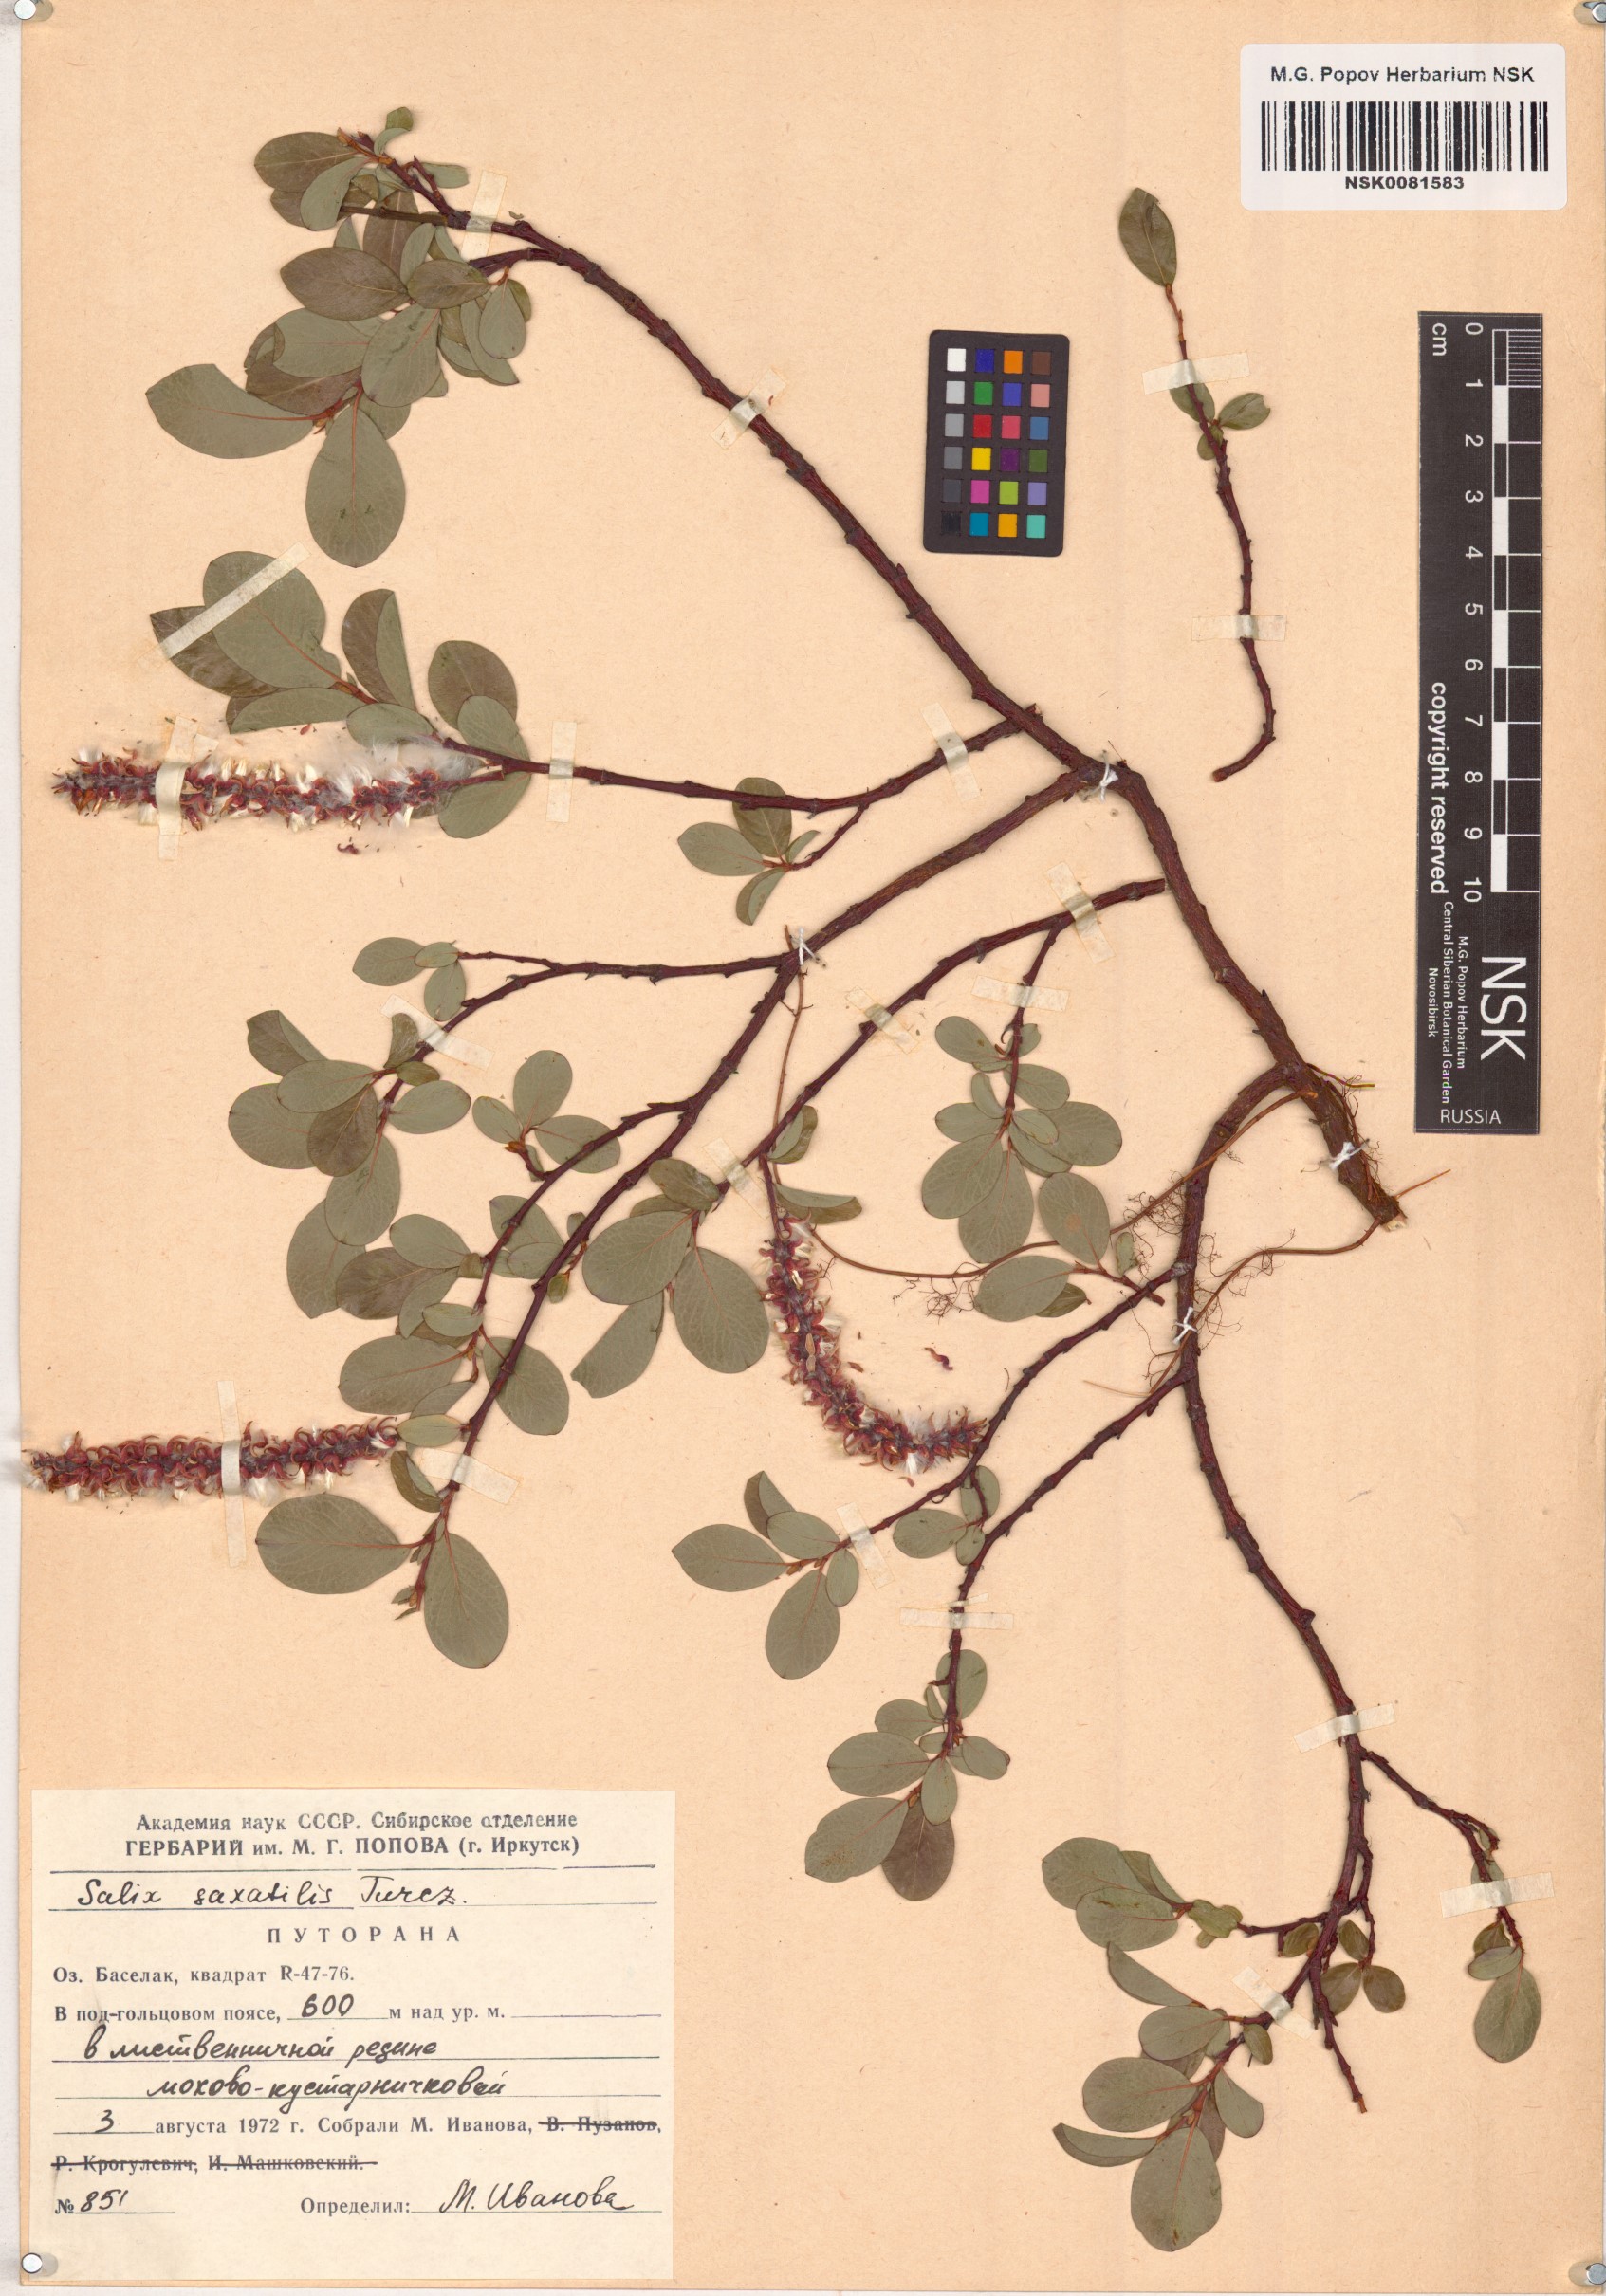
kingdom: Plantae
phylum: Tracheophyta
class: Magnoliopsida
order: Malpighiales
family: Salicaceae
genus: Salix
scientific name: Salix saxatilis
